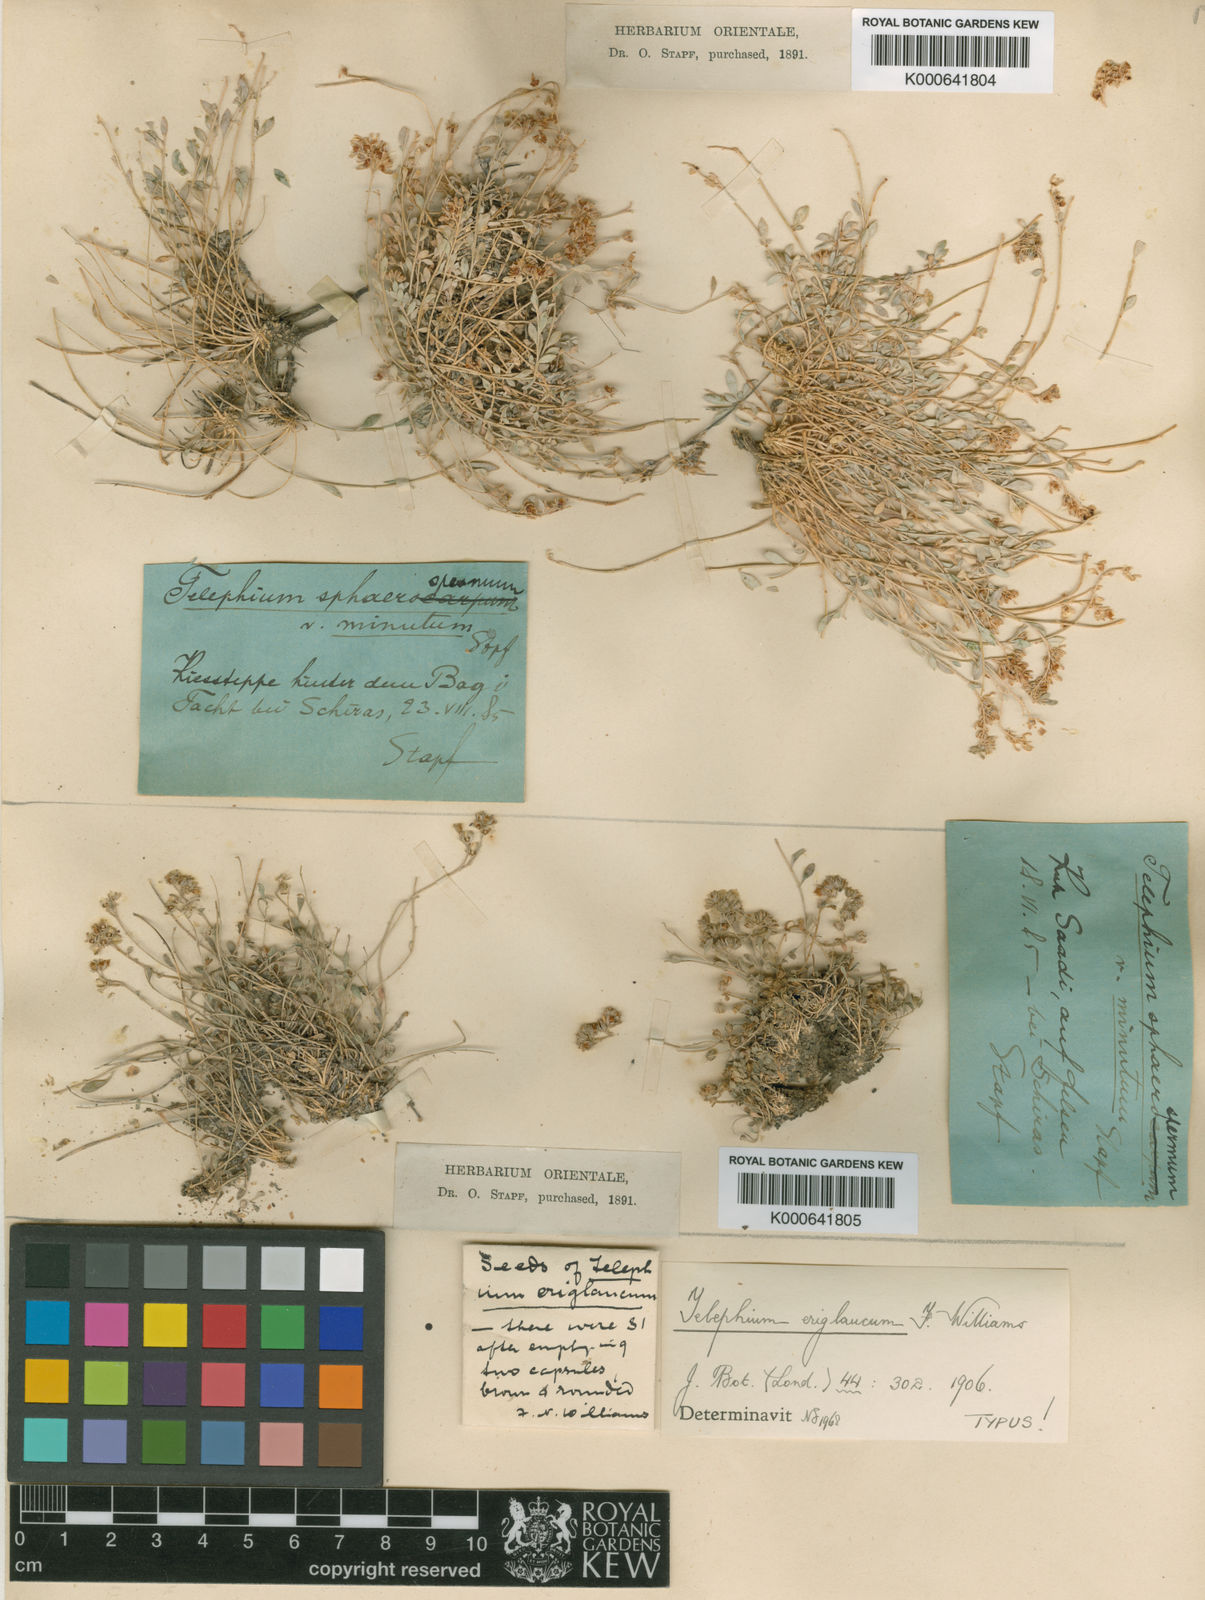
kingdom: Plantae
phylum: Tracheophyta
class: Magnoliopsida
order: Caryophyllales
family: Caryophyllaceae
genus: Telephium
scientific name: Telephium eriglaucum
